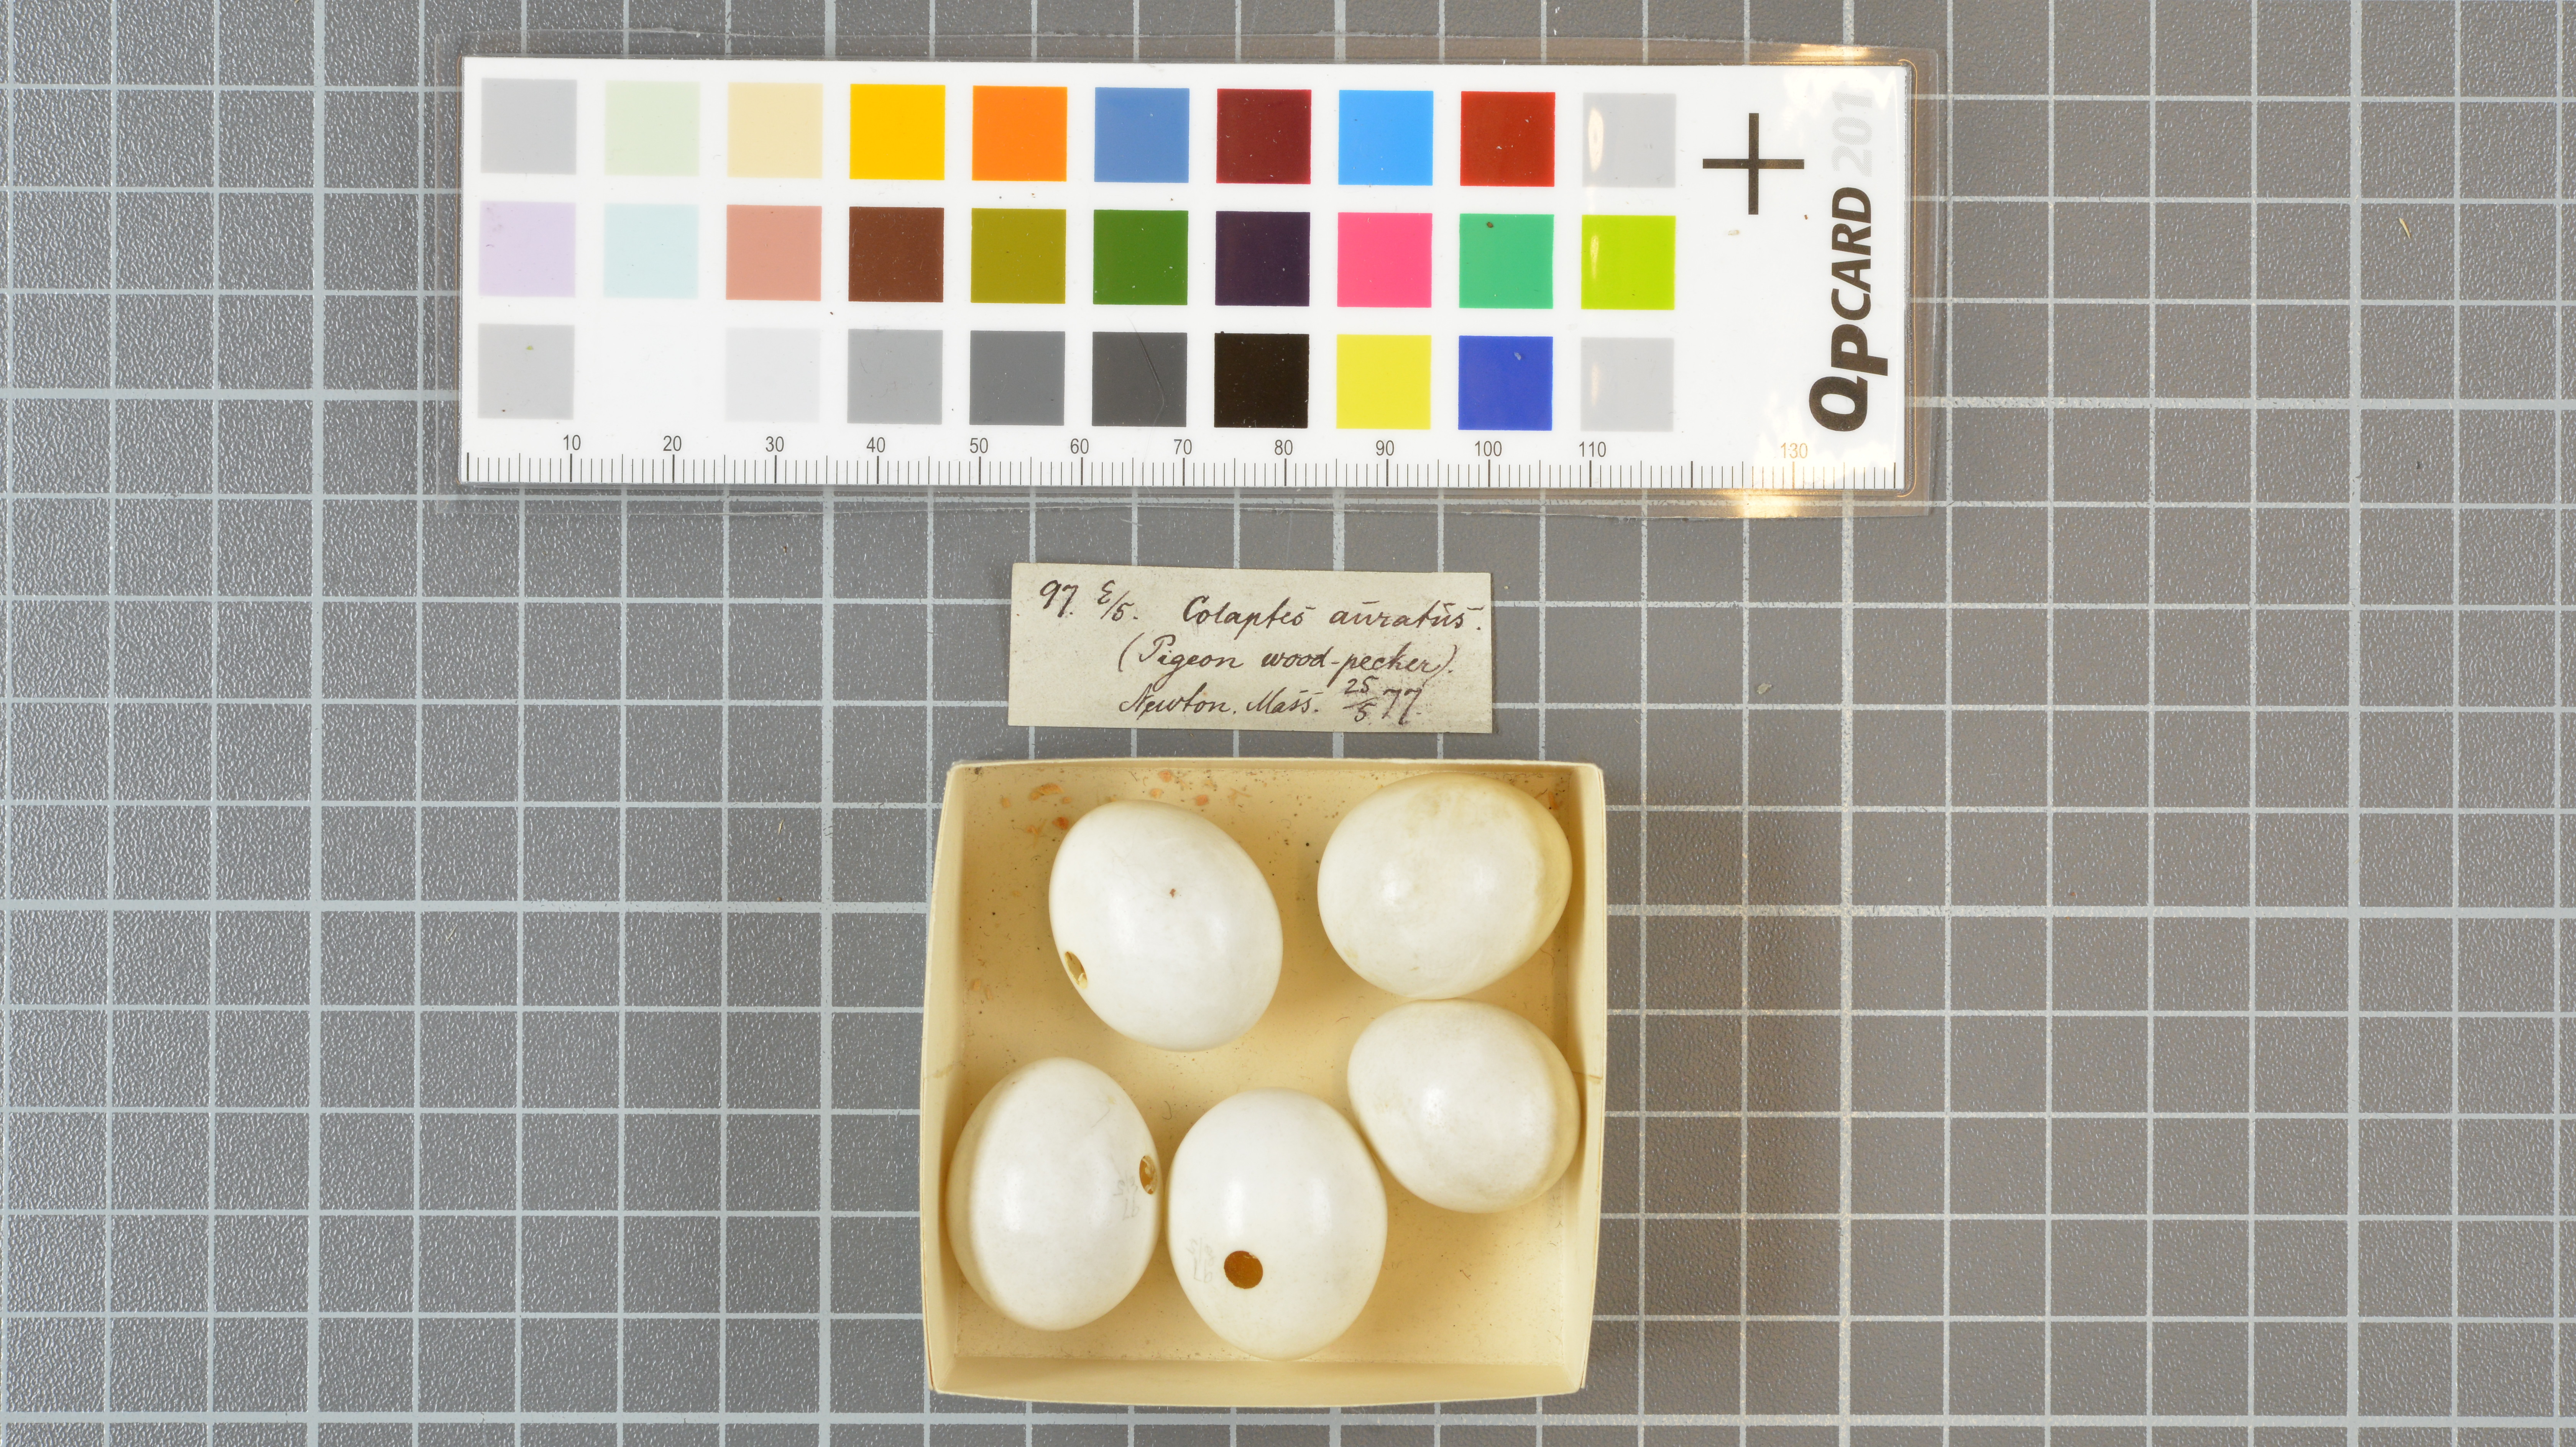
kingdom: Animalia
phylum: Chordata
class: Aves
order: Piciformes
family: Picidae
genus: Colaptes
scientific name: Colaptes auratus
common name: Northern flicker
